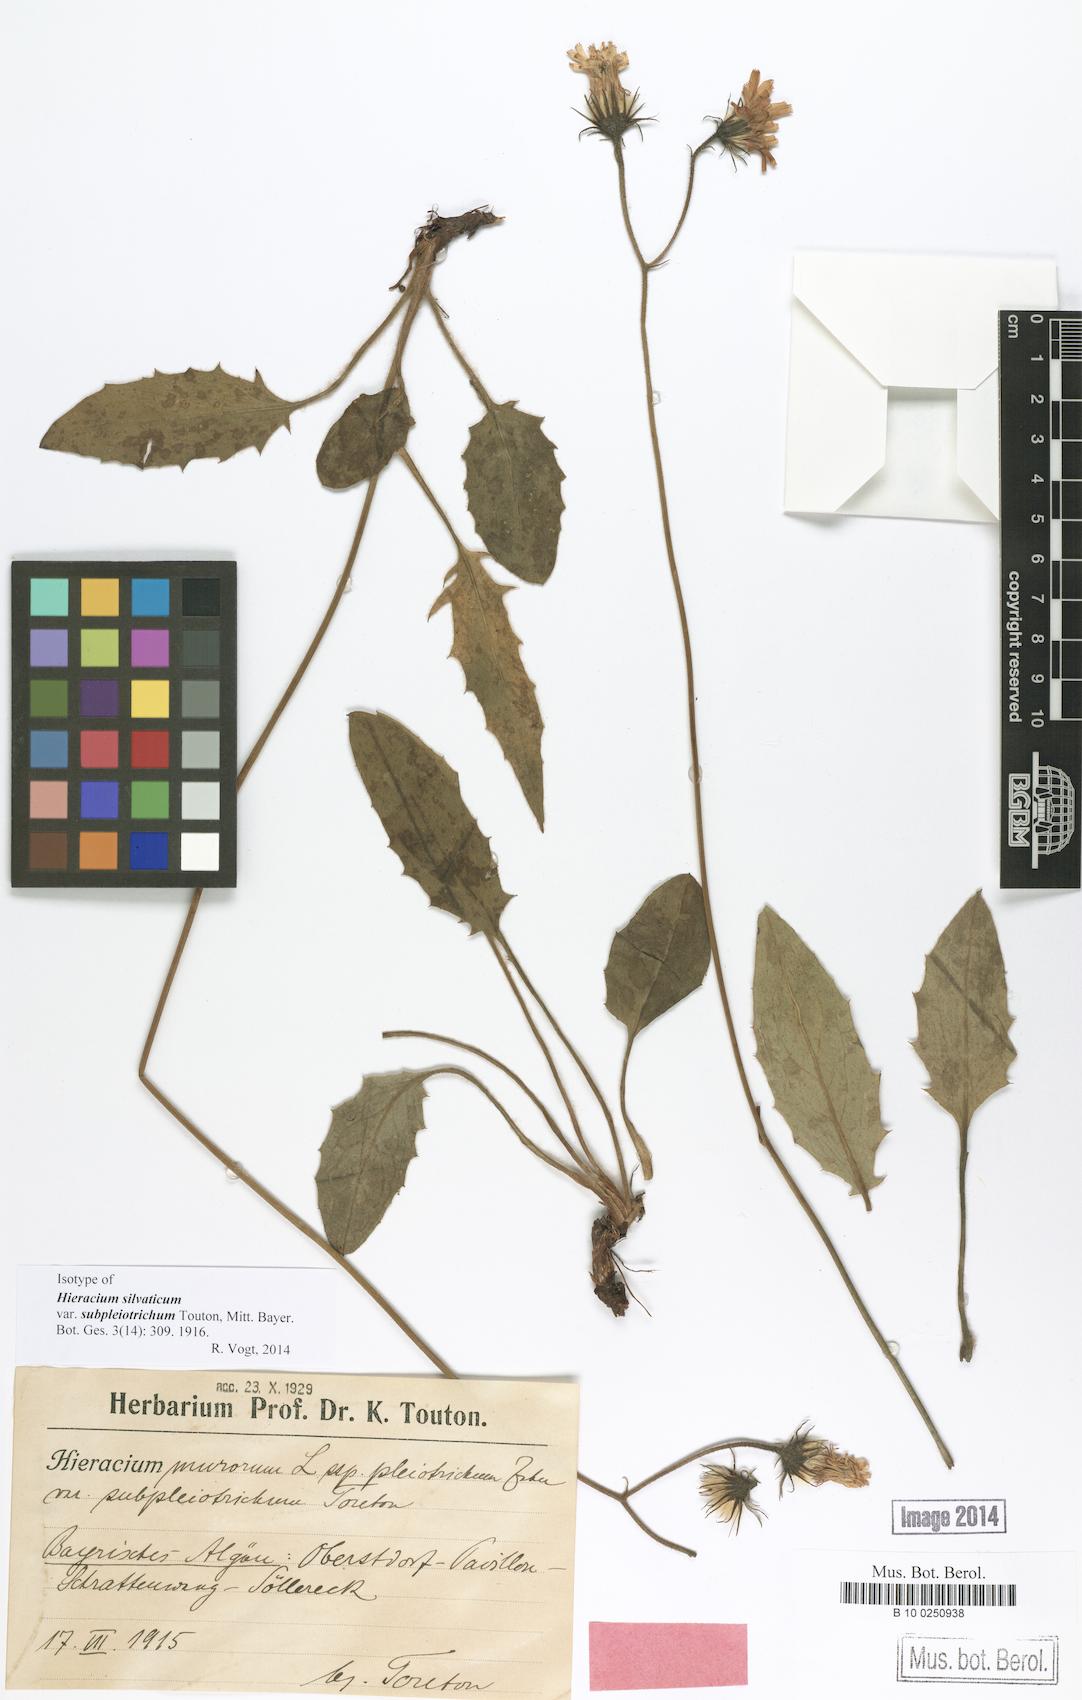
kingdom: Plantae
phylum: Tracheophyta
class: Magnoliopsida
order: Asterales
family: Asteraceae
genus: Hieracium
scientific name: Hieracium
